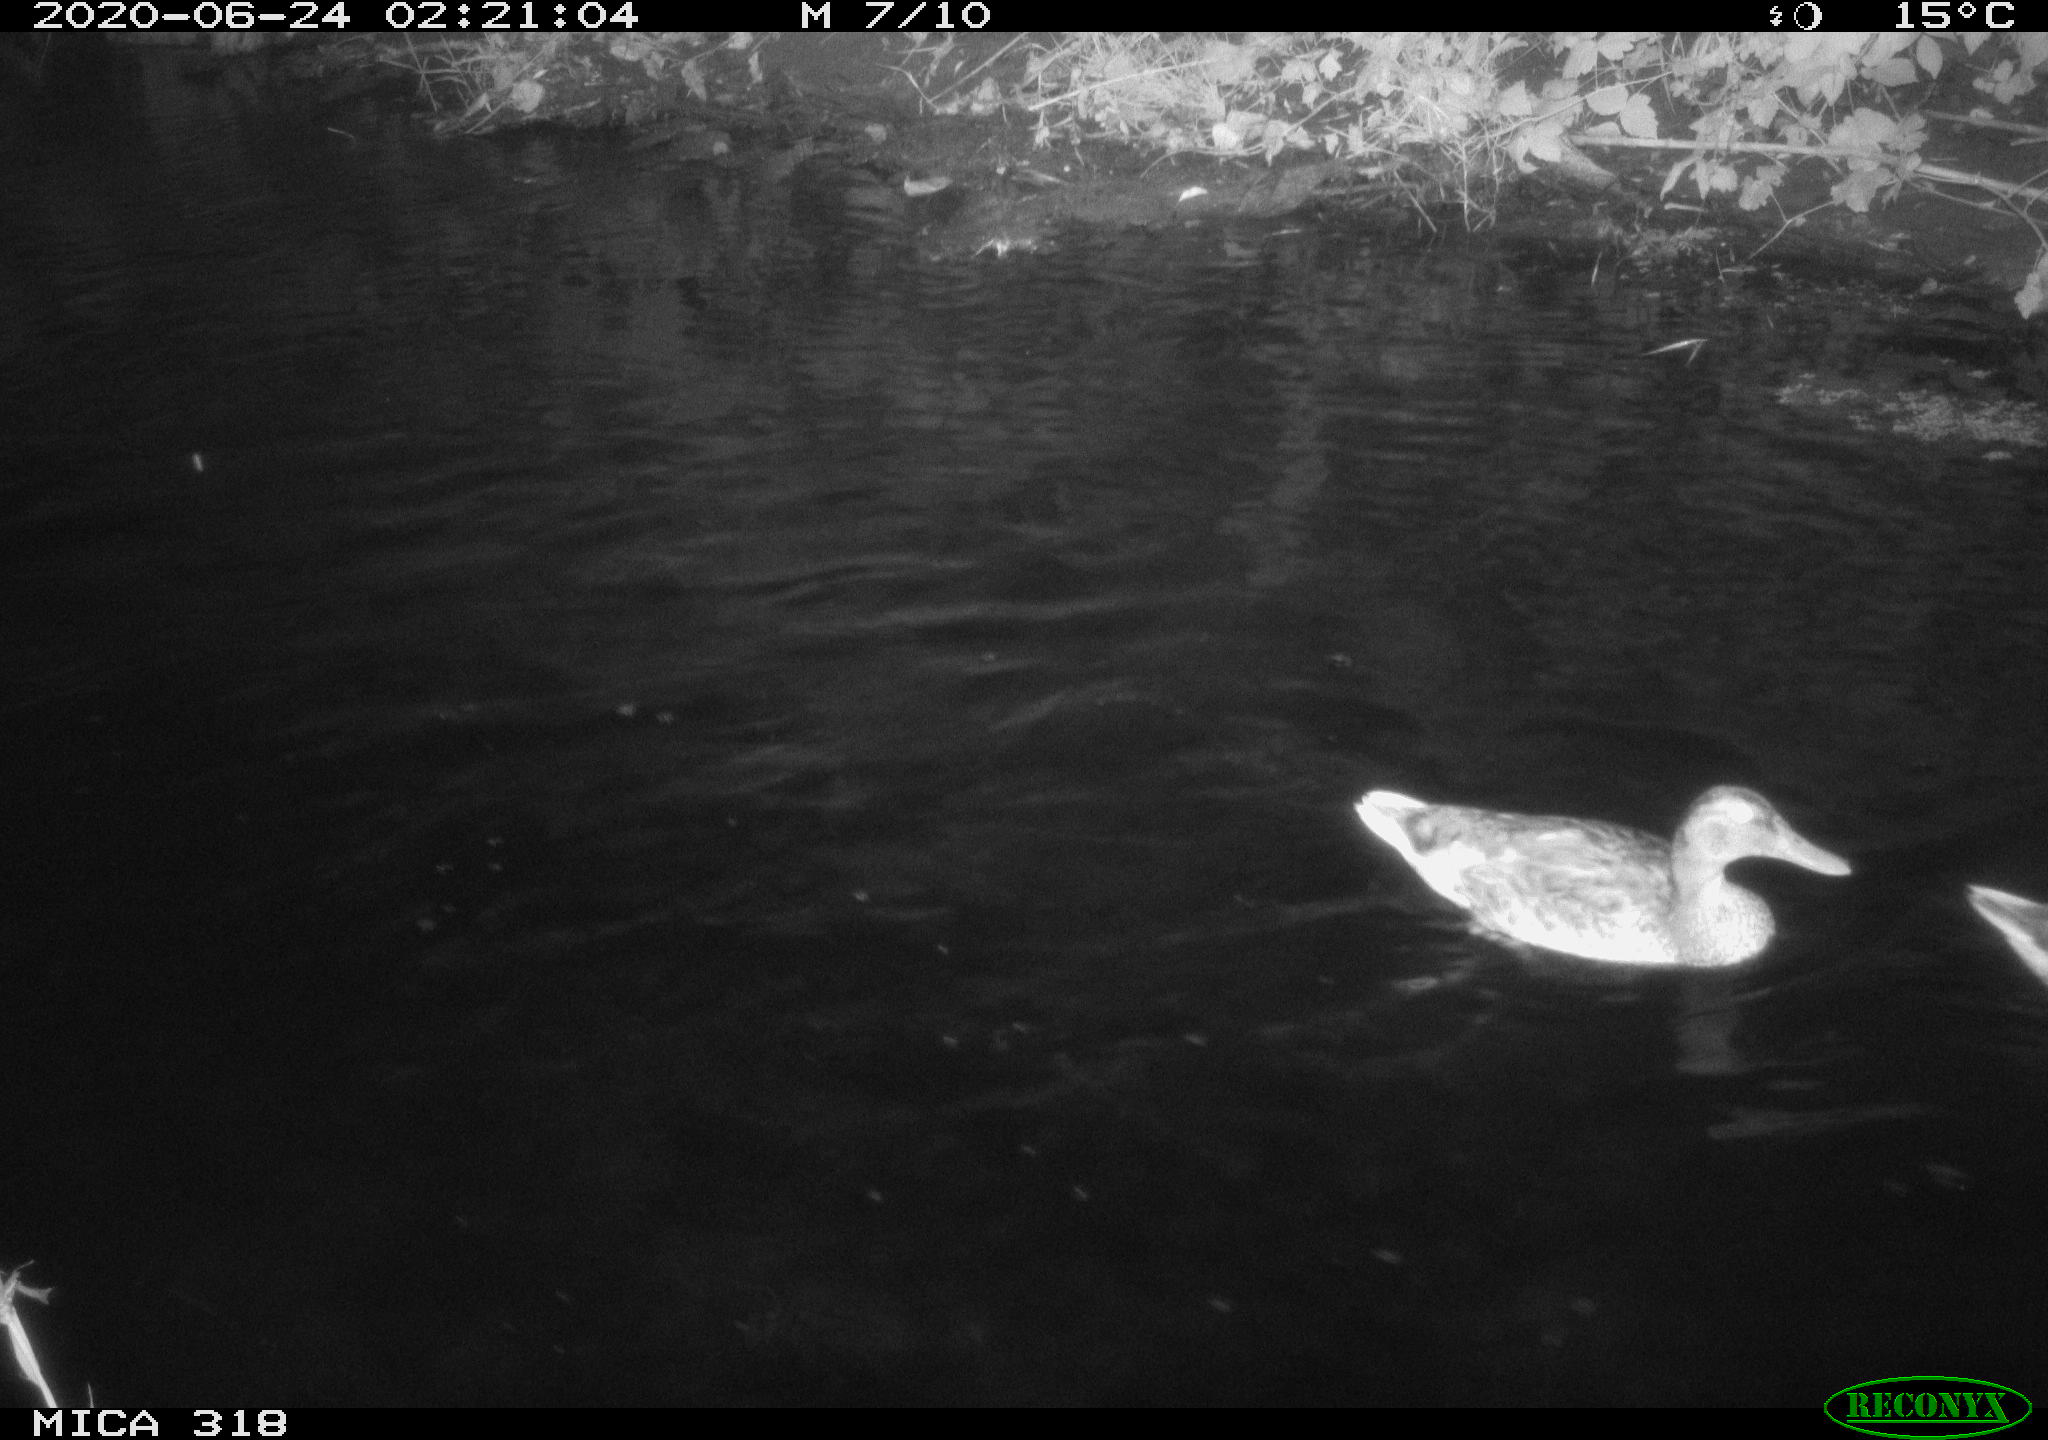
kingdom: Animalia
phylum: Chordata
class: Aves
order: Anseriformes
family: Anatidae
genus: Anas
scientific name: Anas platyrhynchos
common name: Mallard
